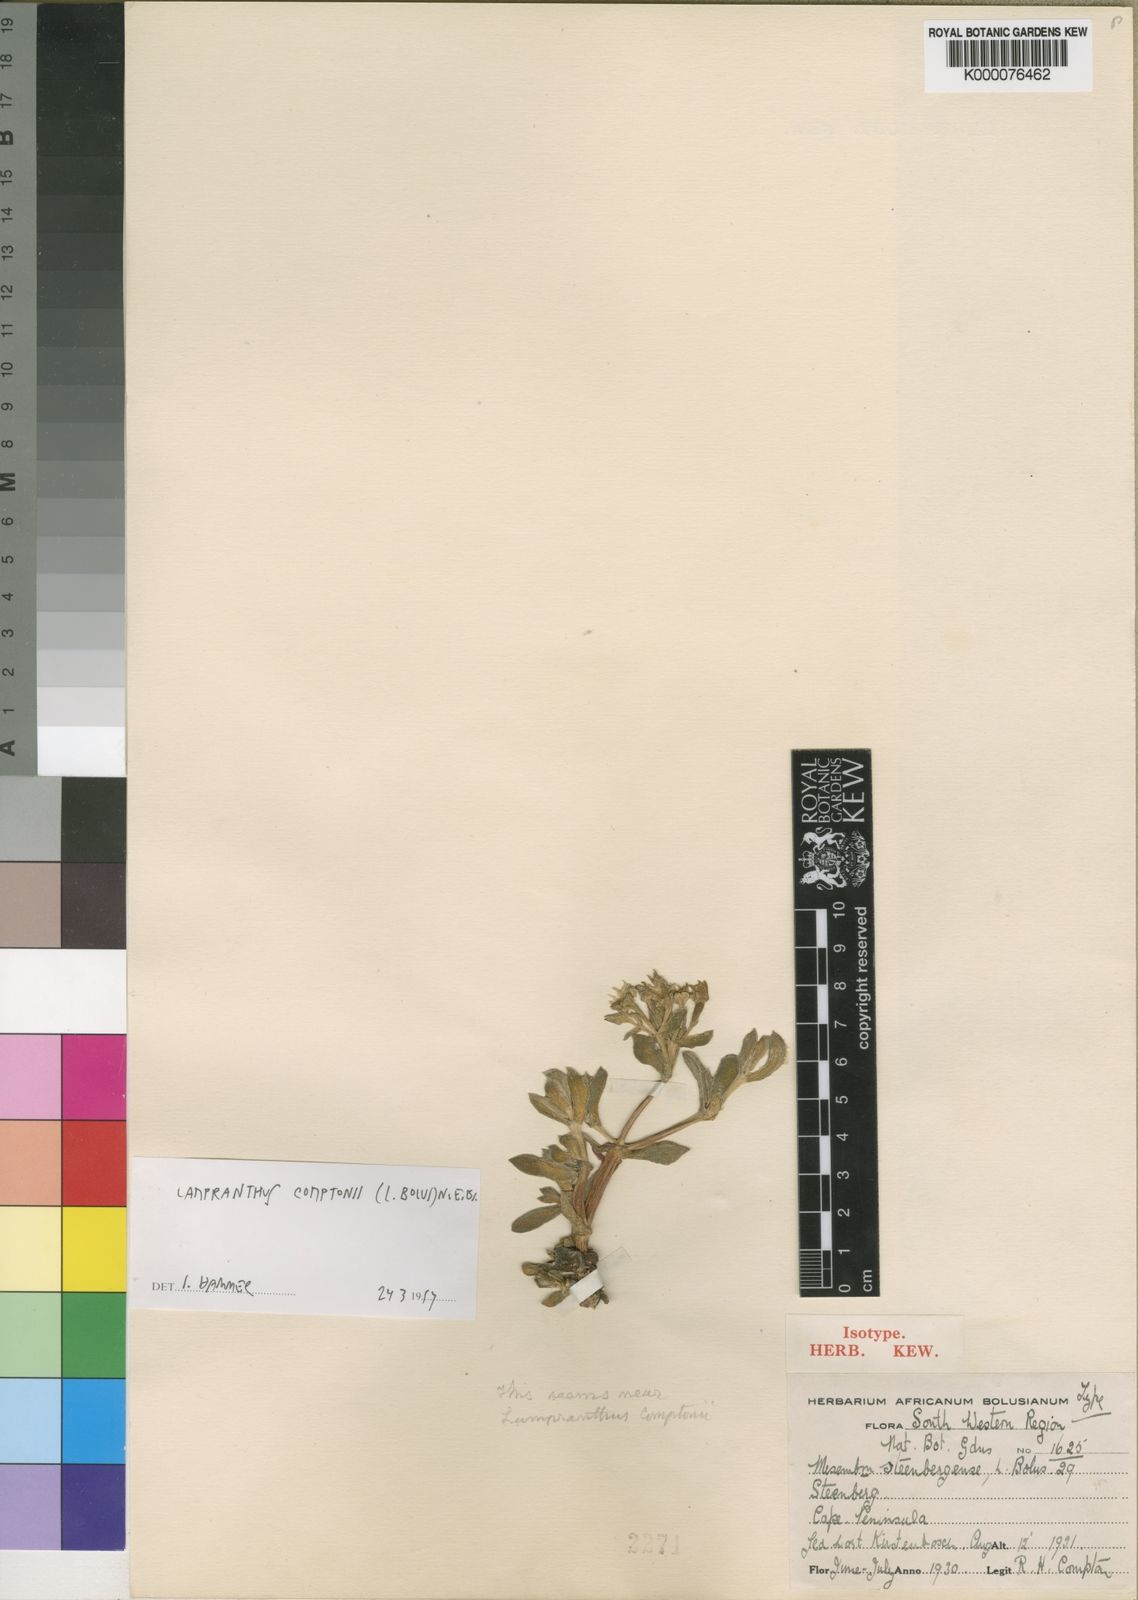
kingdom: Plantae
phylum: Tracheophyta
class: Magnoliopsida
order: Caryophyllales
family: Aizoaceae
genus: Oscularia
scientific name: Oscularia comptonii
